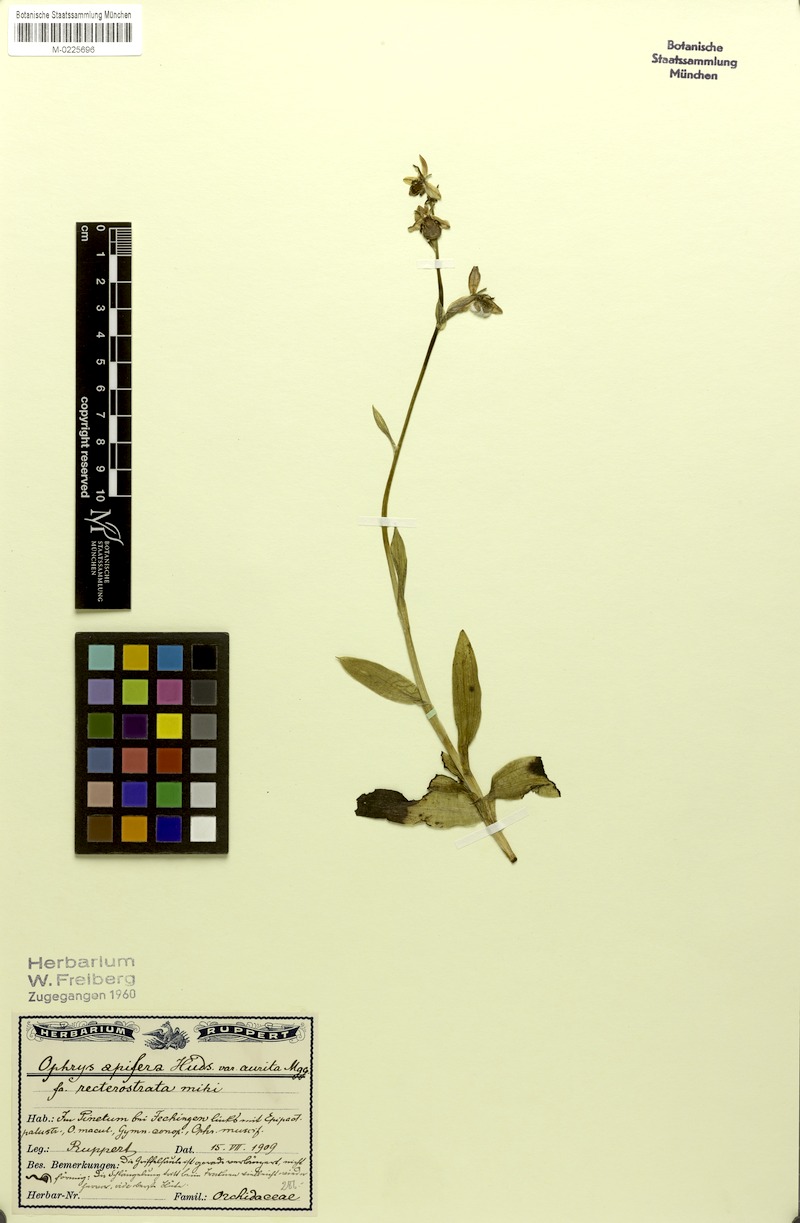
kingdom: Plantae
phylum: Tracheophyta
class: Liliopsida
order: Asparagales
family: Orchidaceae
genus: Ophrys
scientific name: Ophrys apifera
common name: Bee orchid
